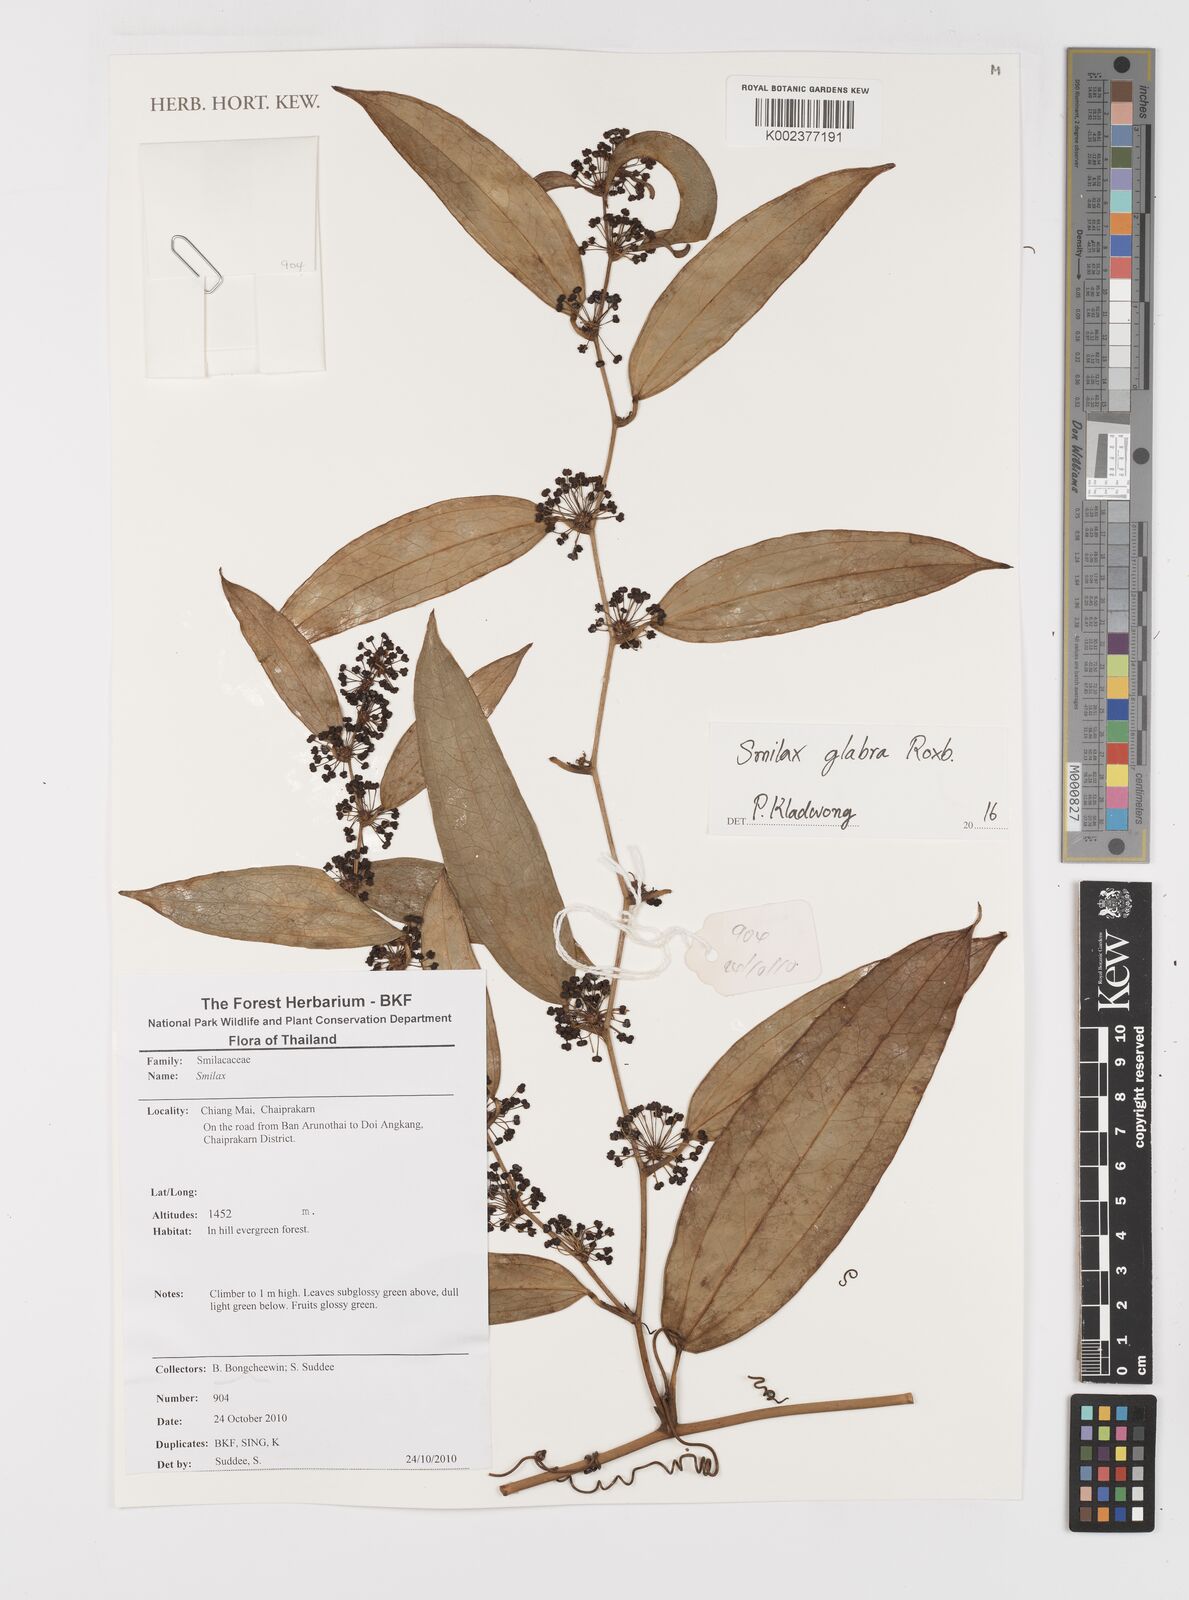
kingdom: Plantae
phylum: Tracheophyta
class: Liliopsida
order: Liliales
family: Smilacaceae
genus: Smilax
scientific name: Smilax glabra
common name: Chinese smilax
